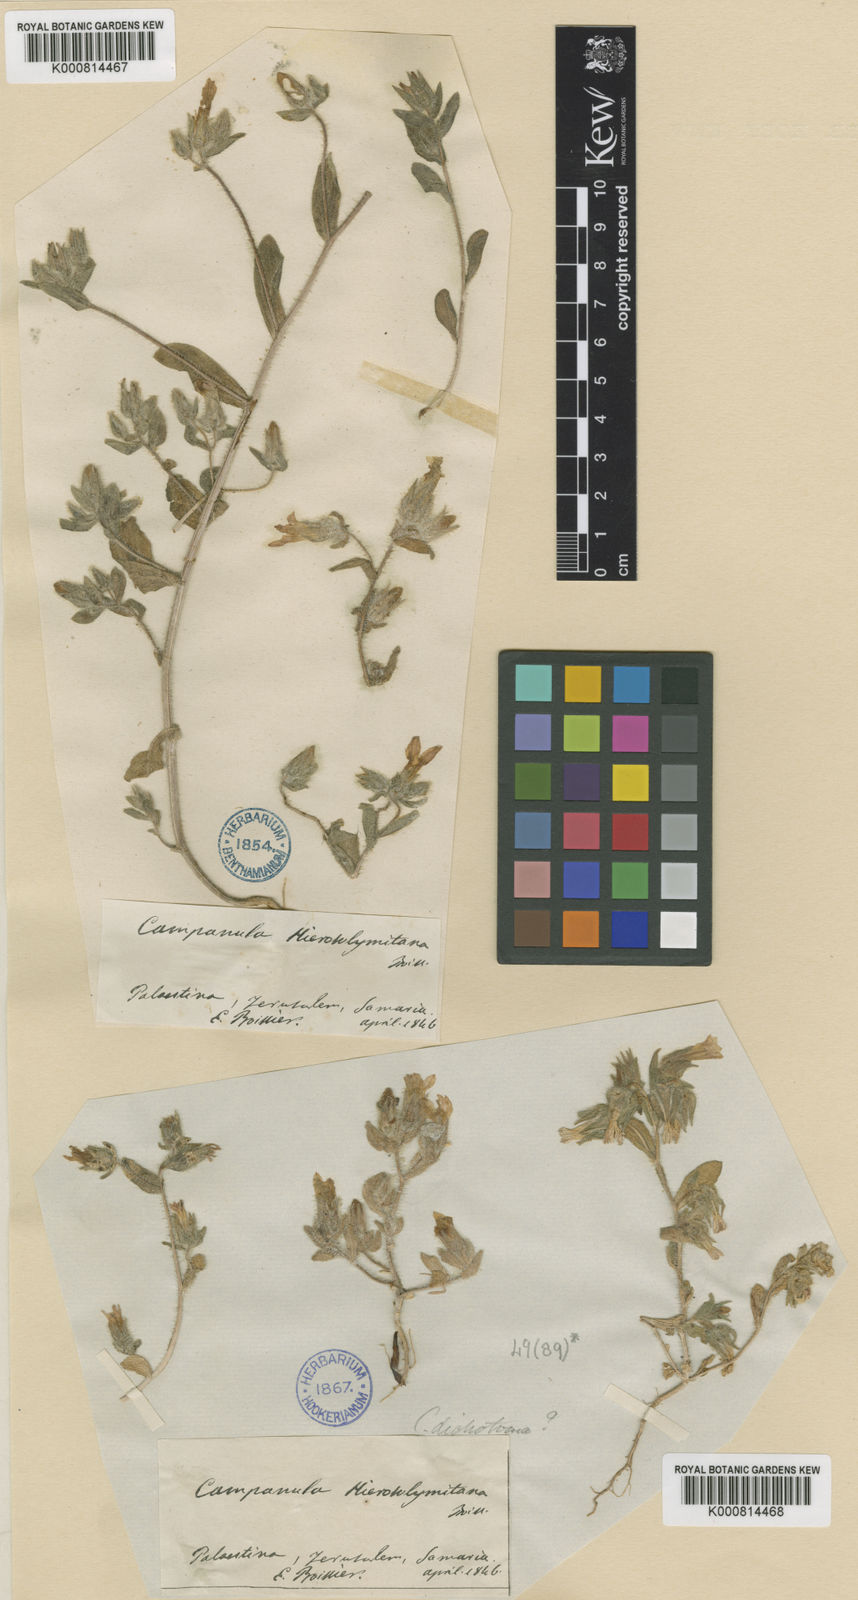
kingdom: Plantae
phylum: Tracheophyta
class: Magnoliopsida
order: Asterales
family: Campanulaceae
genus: Campanula
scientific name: Campanula hierosolymitana
